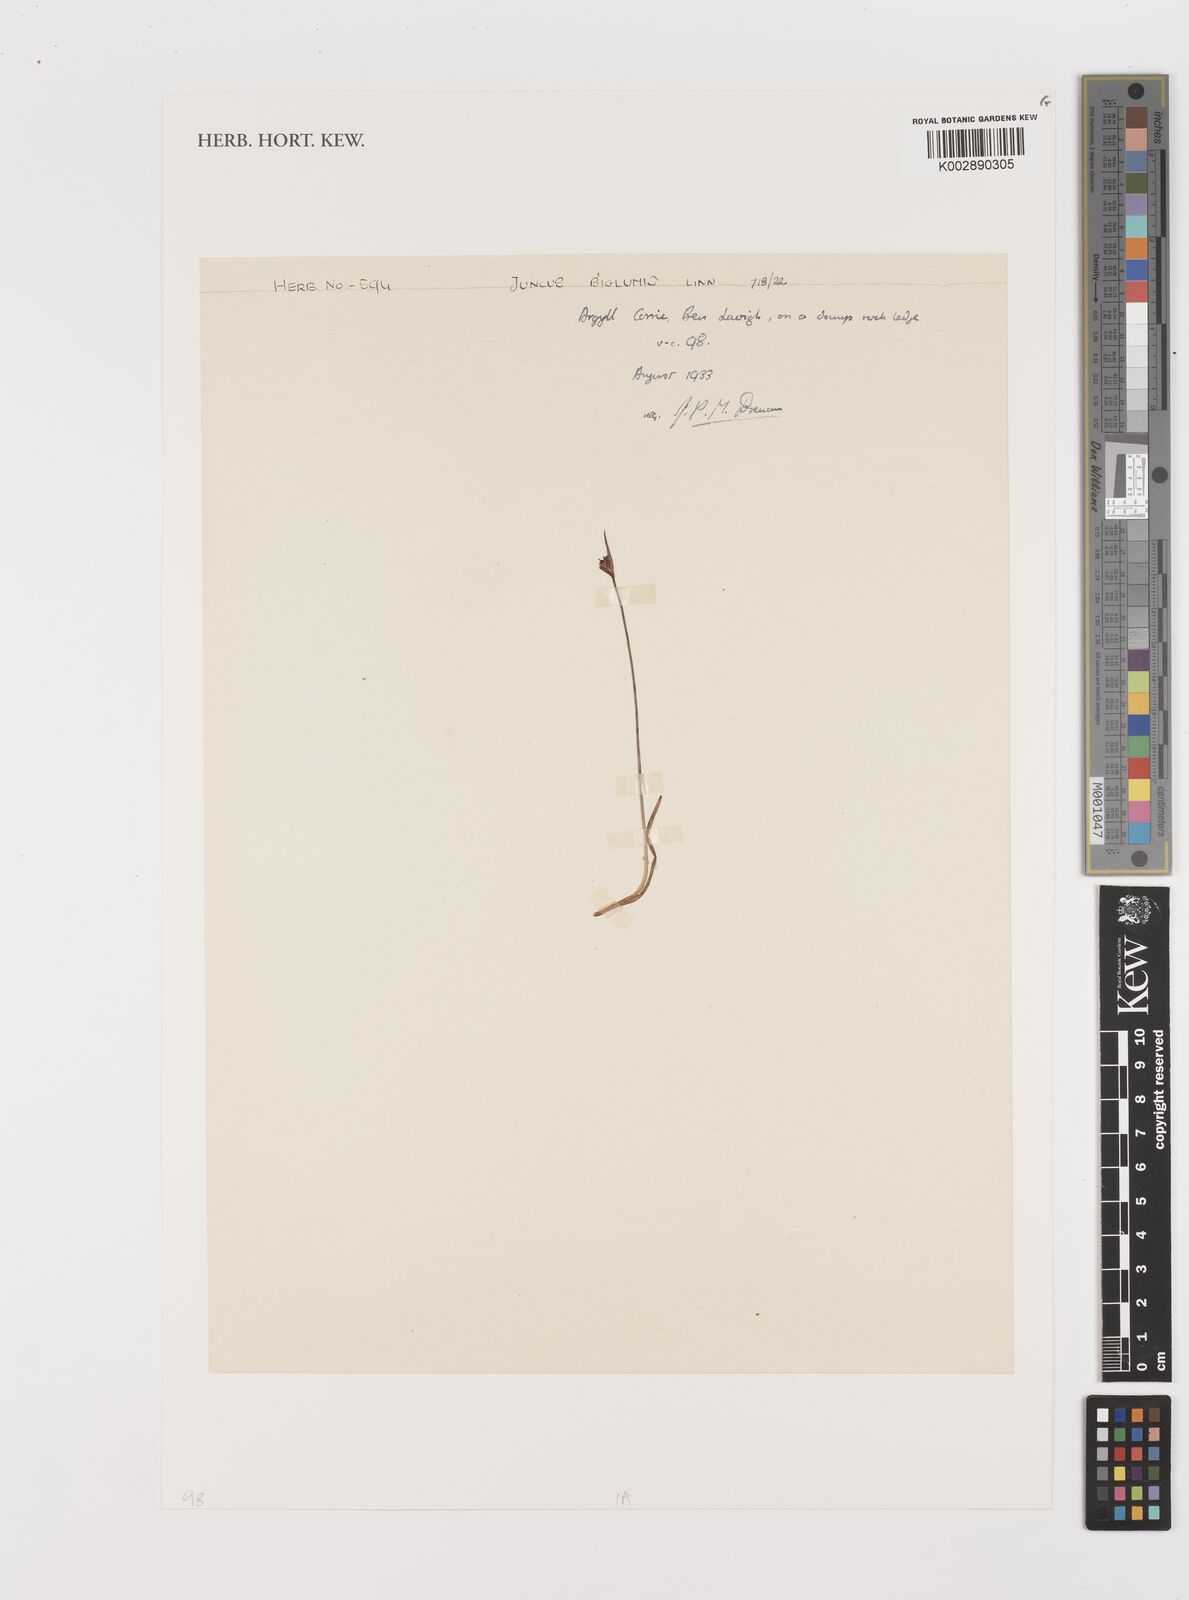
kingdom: Plantae
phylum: Tracheophyta
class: Liliopsida
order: Poales
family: Juncaceae
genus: Juncus
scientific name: Juncus biglumis
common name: Two-flowered rush
